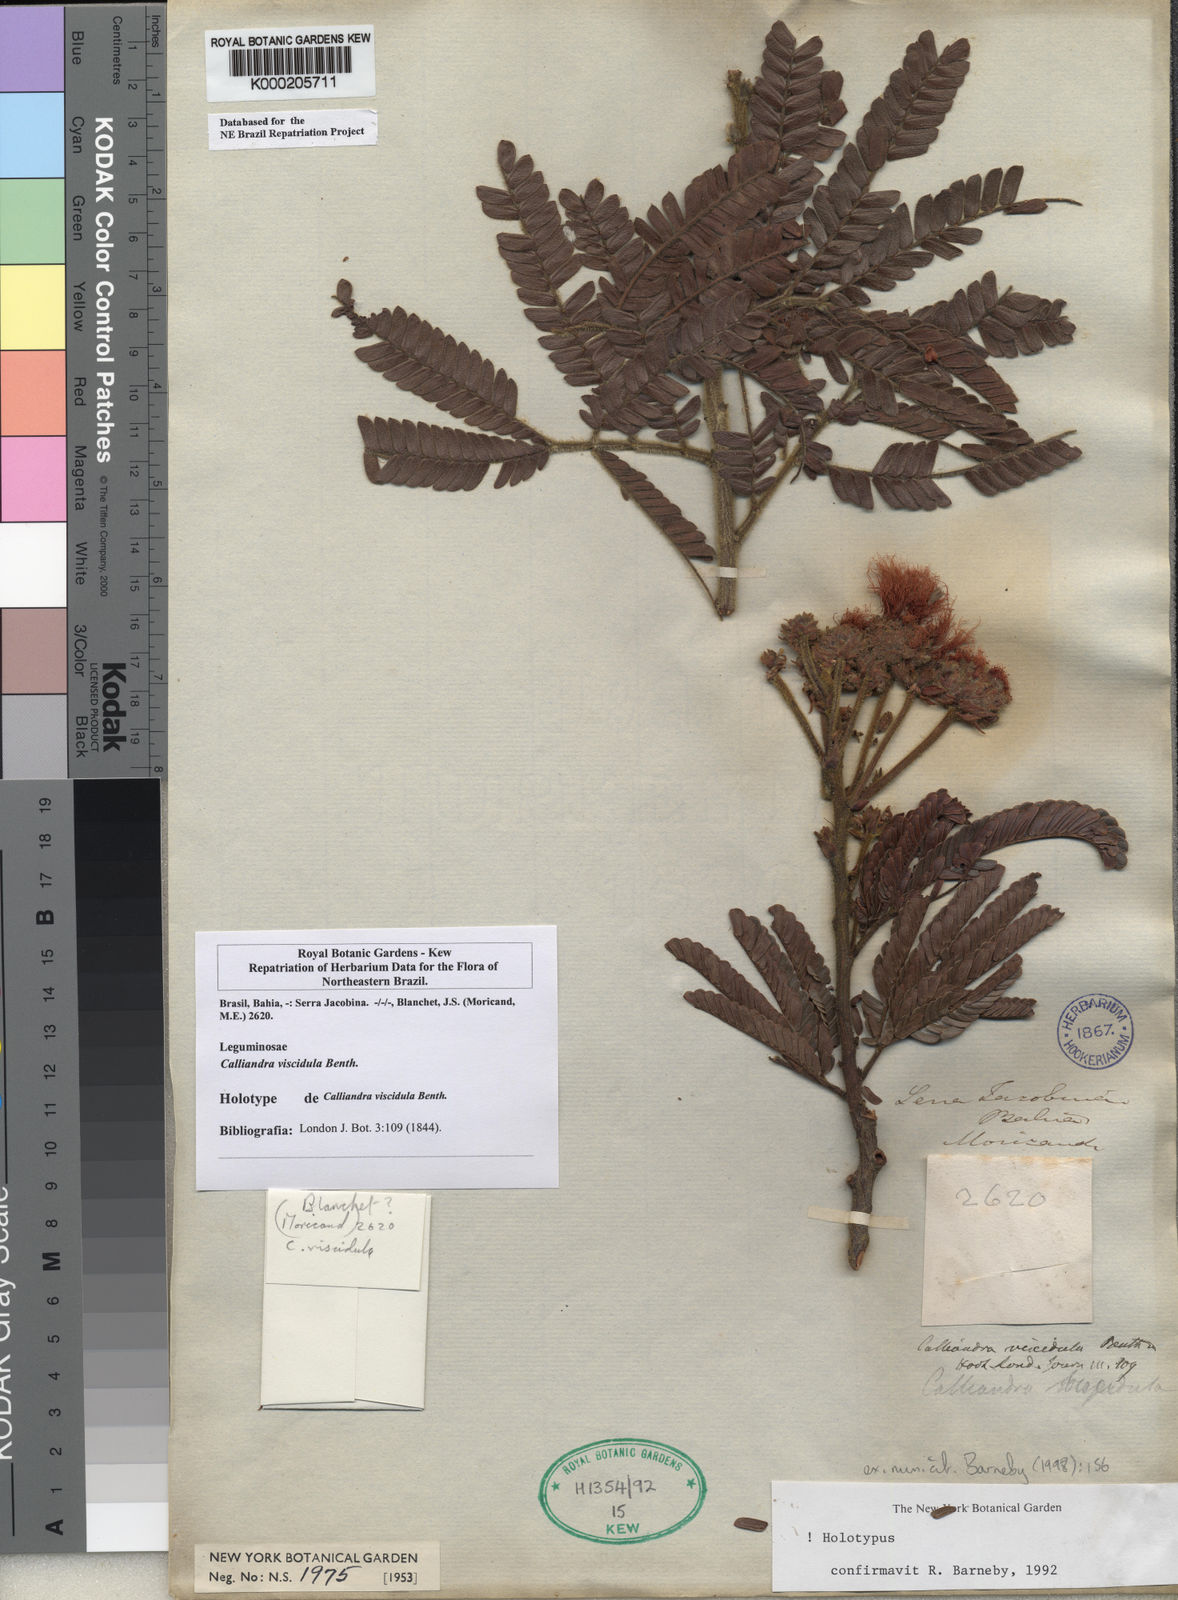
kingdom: Plantae
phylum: Tracheophyta
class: Magnoliopsida
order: Fabales
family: Fabaceae
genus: Calliandra
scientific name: Calliandra viscidula
